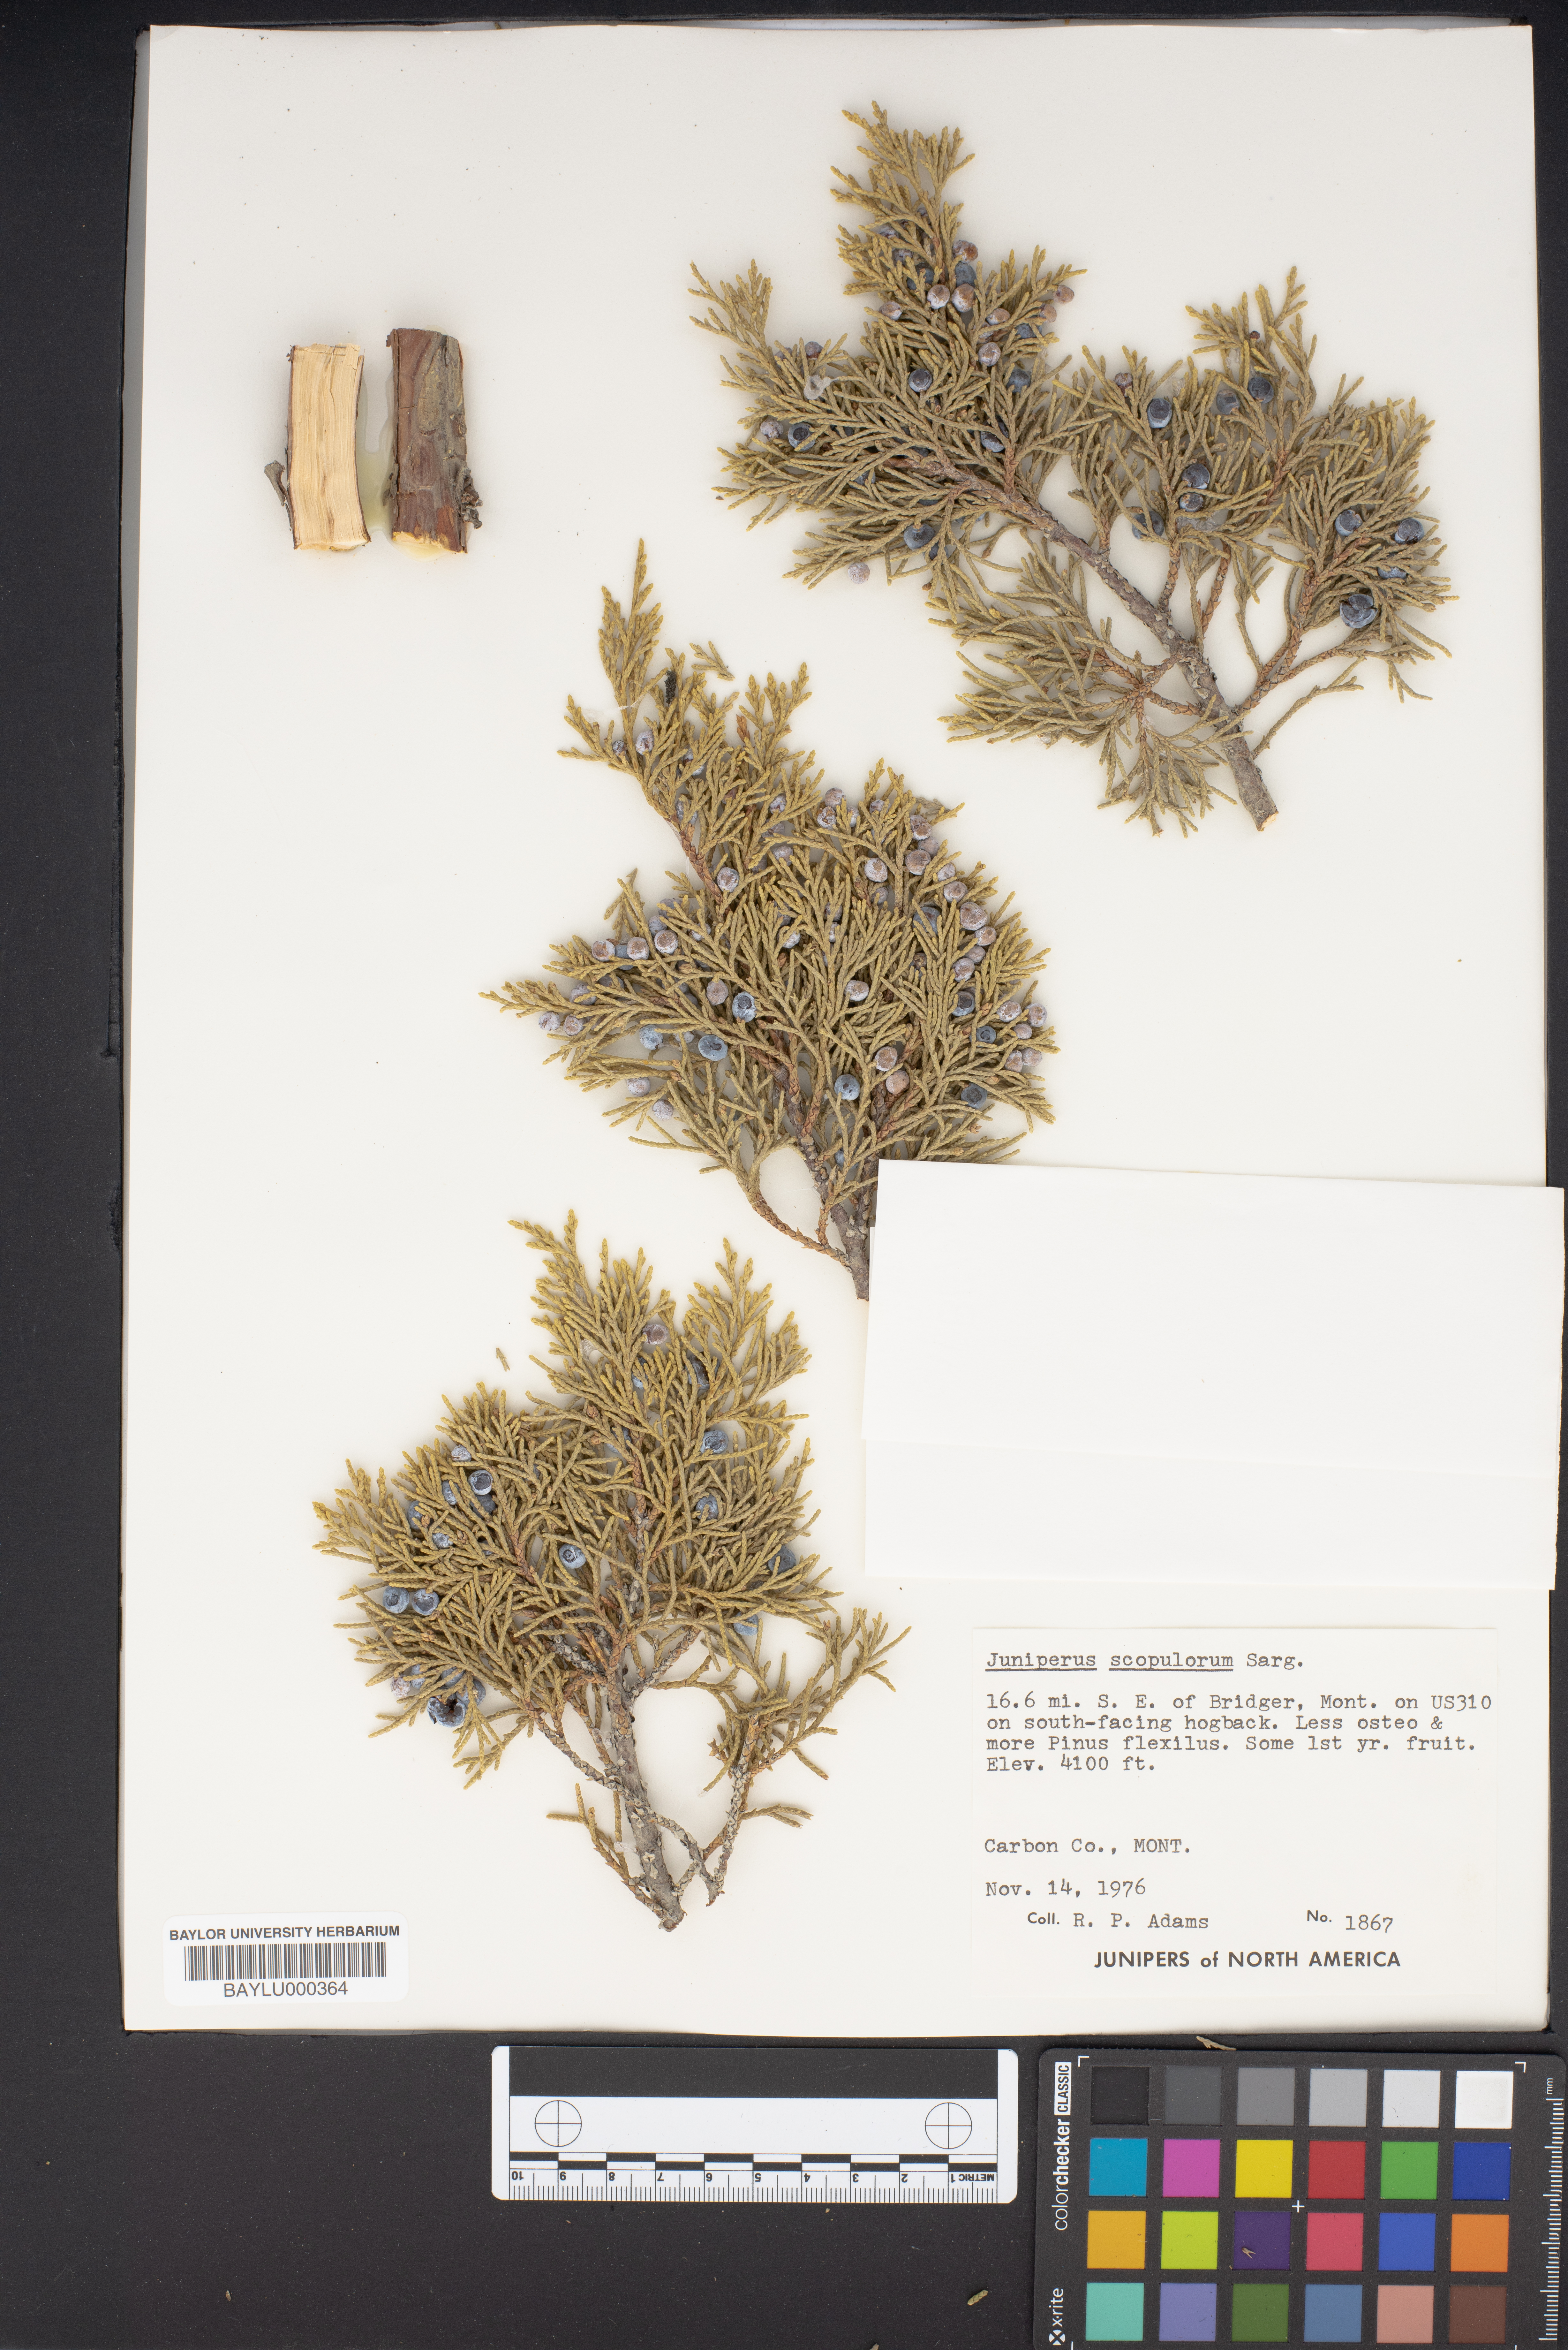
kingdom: Plantae
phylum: Tracheophyta
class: Pinopsida
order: Pinales
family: Cupressaceae
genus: Juniperus
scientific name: Juniperus scopulorum
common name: Rocky mountain juniper
